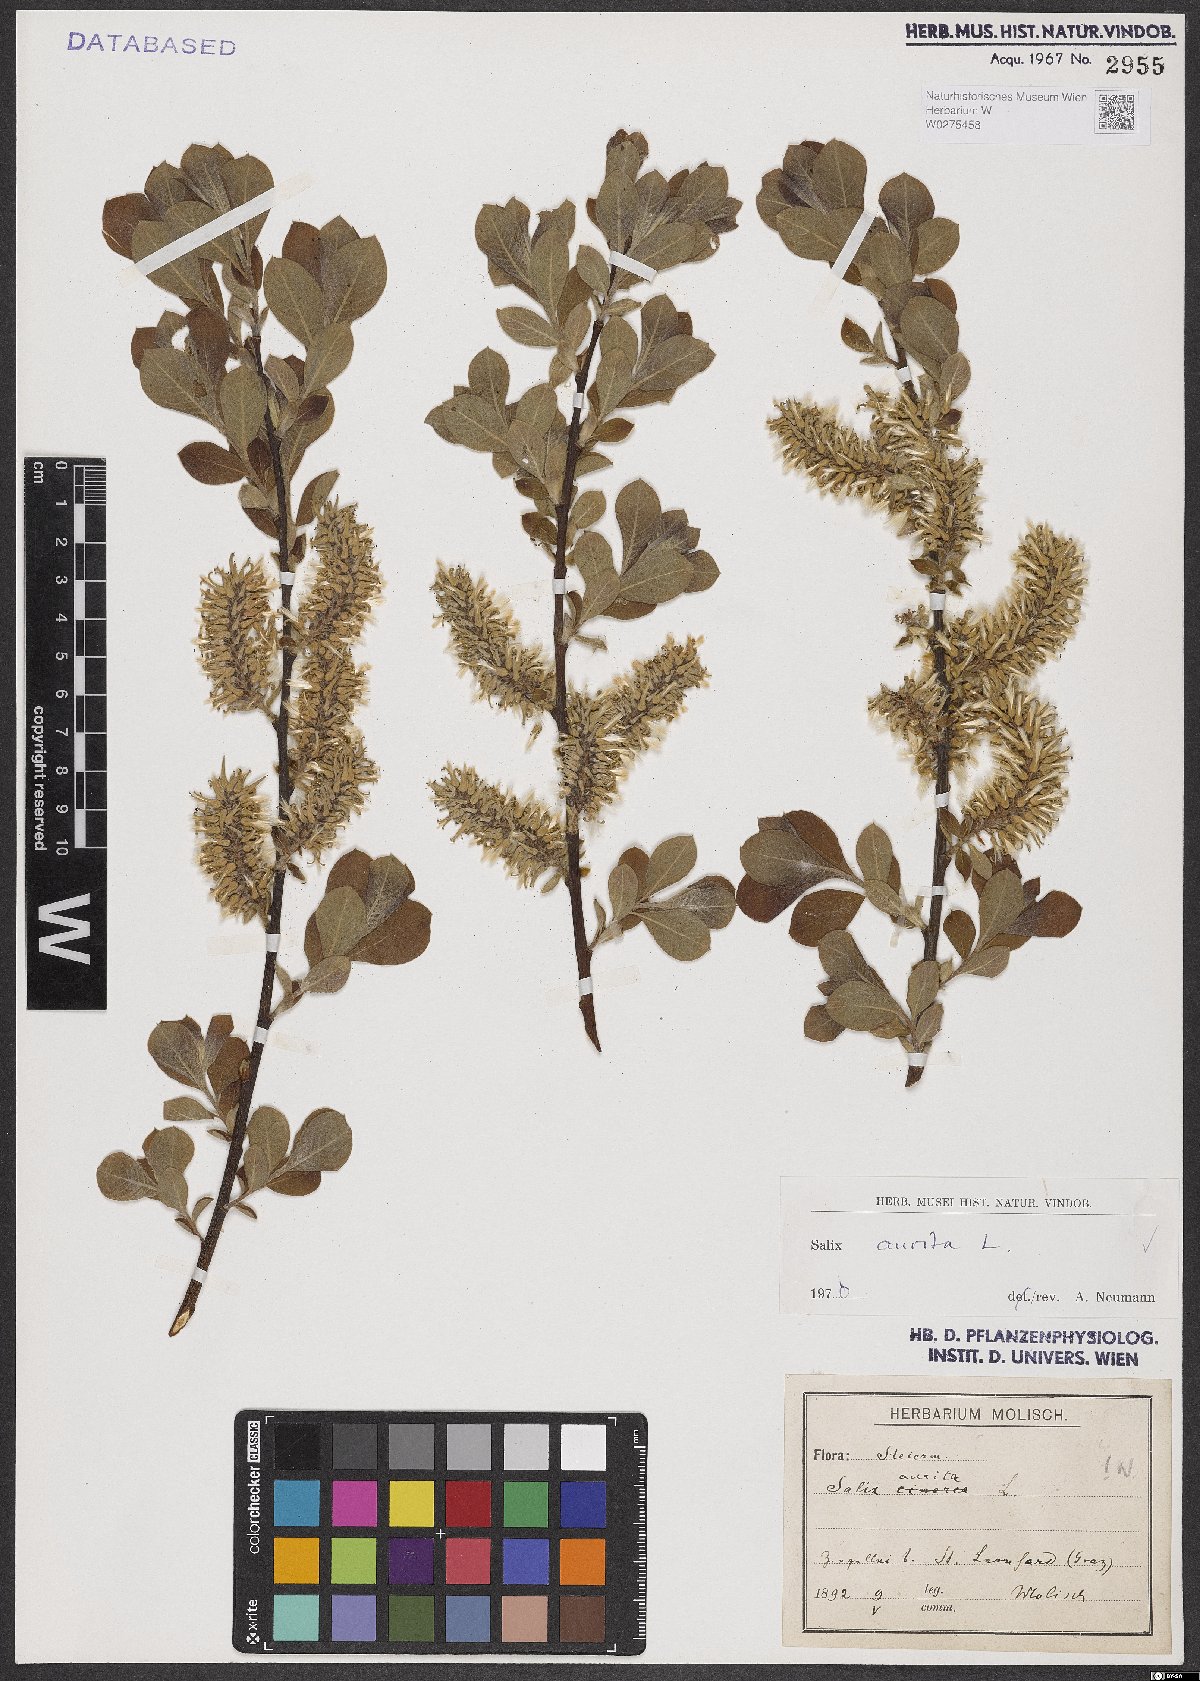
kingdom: Plantae
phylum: Tracheophyta
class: Magnoliopsida
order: Malpighiales
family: Salicaceae
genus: Salix
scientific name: Salix aurita
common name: Eared willow
